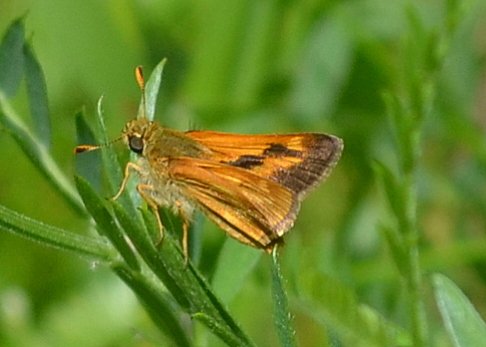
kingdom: Animalia
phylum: Arthropoda
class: Insecta
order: Lepidoptera
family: Hesperiidae
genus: Polites
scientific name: Polites
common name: Long Dash Skipper
